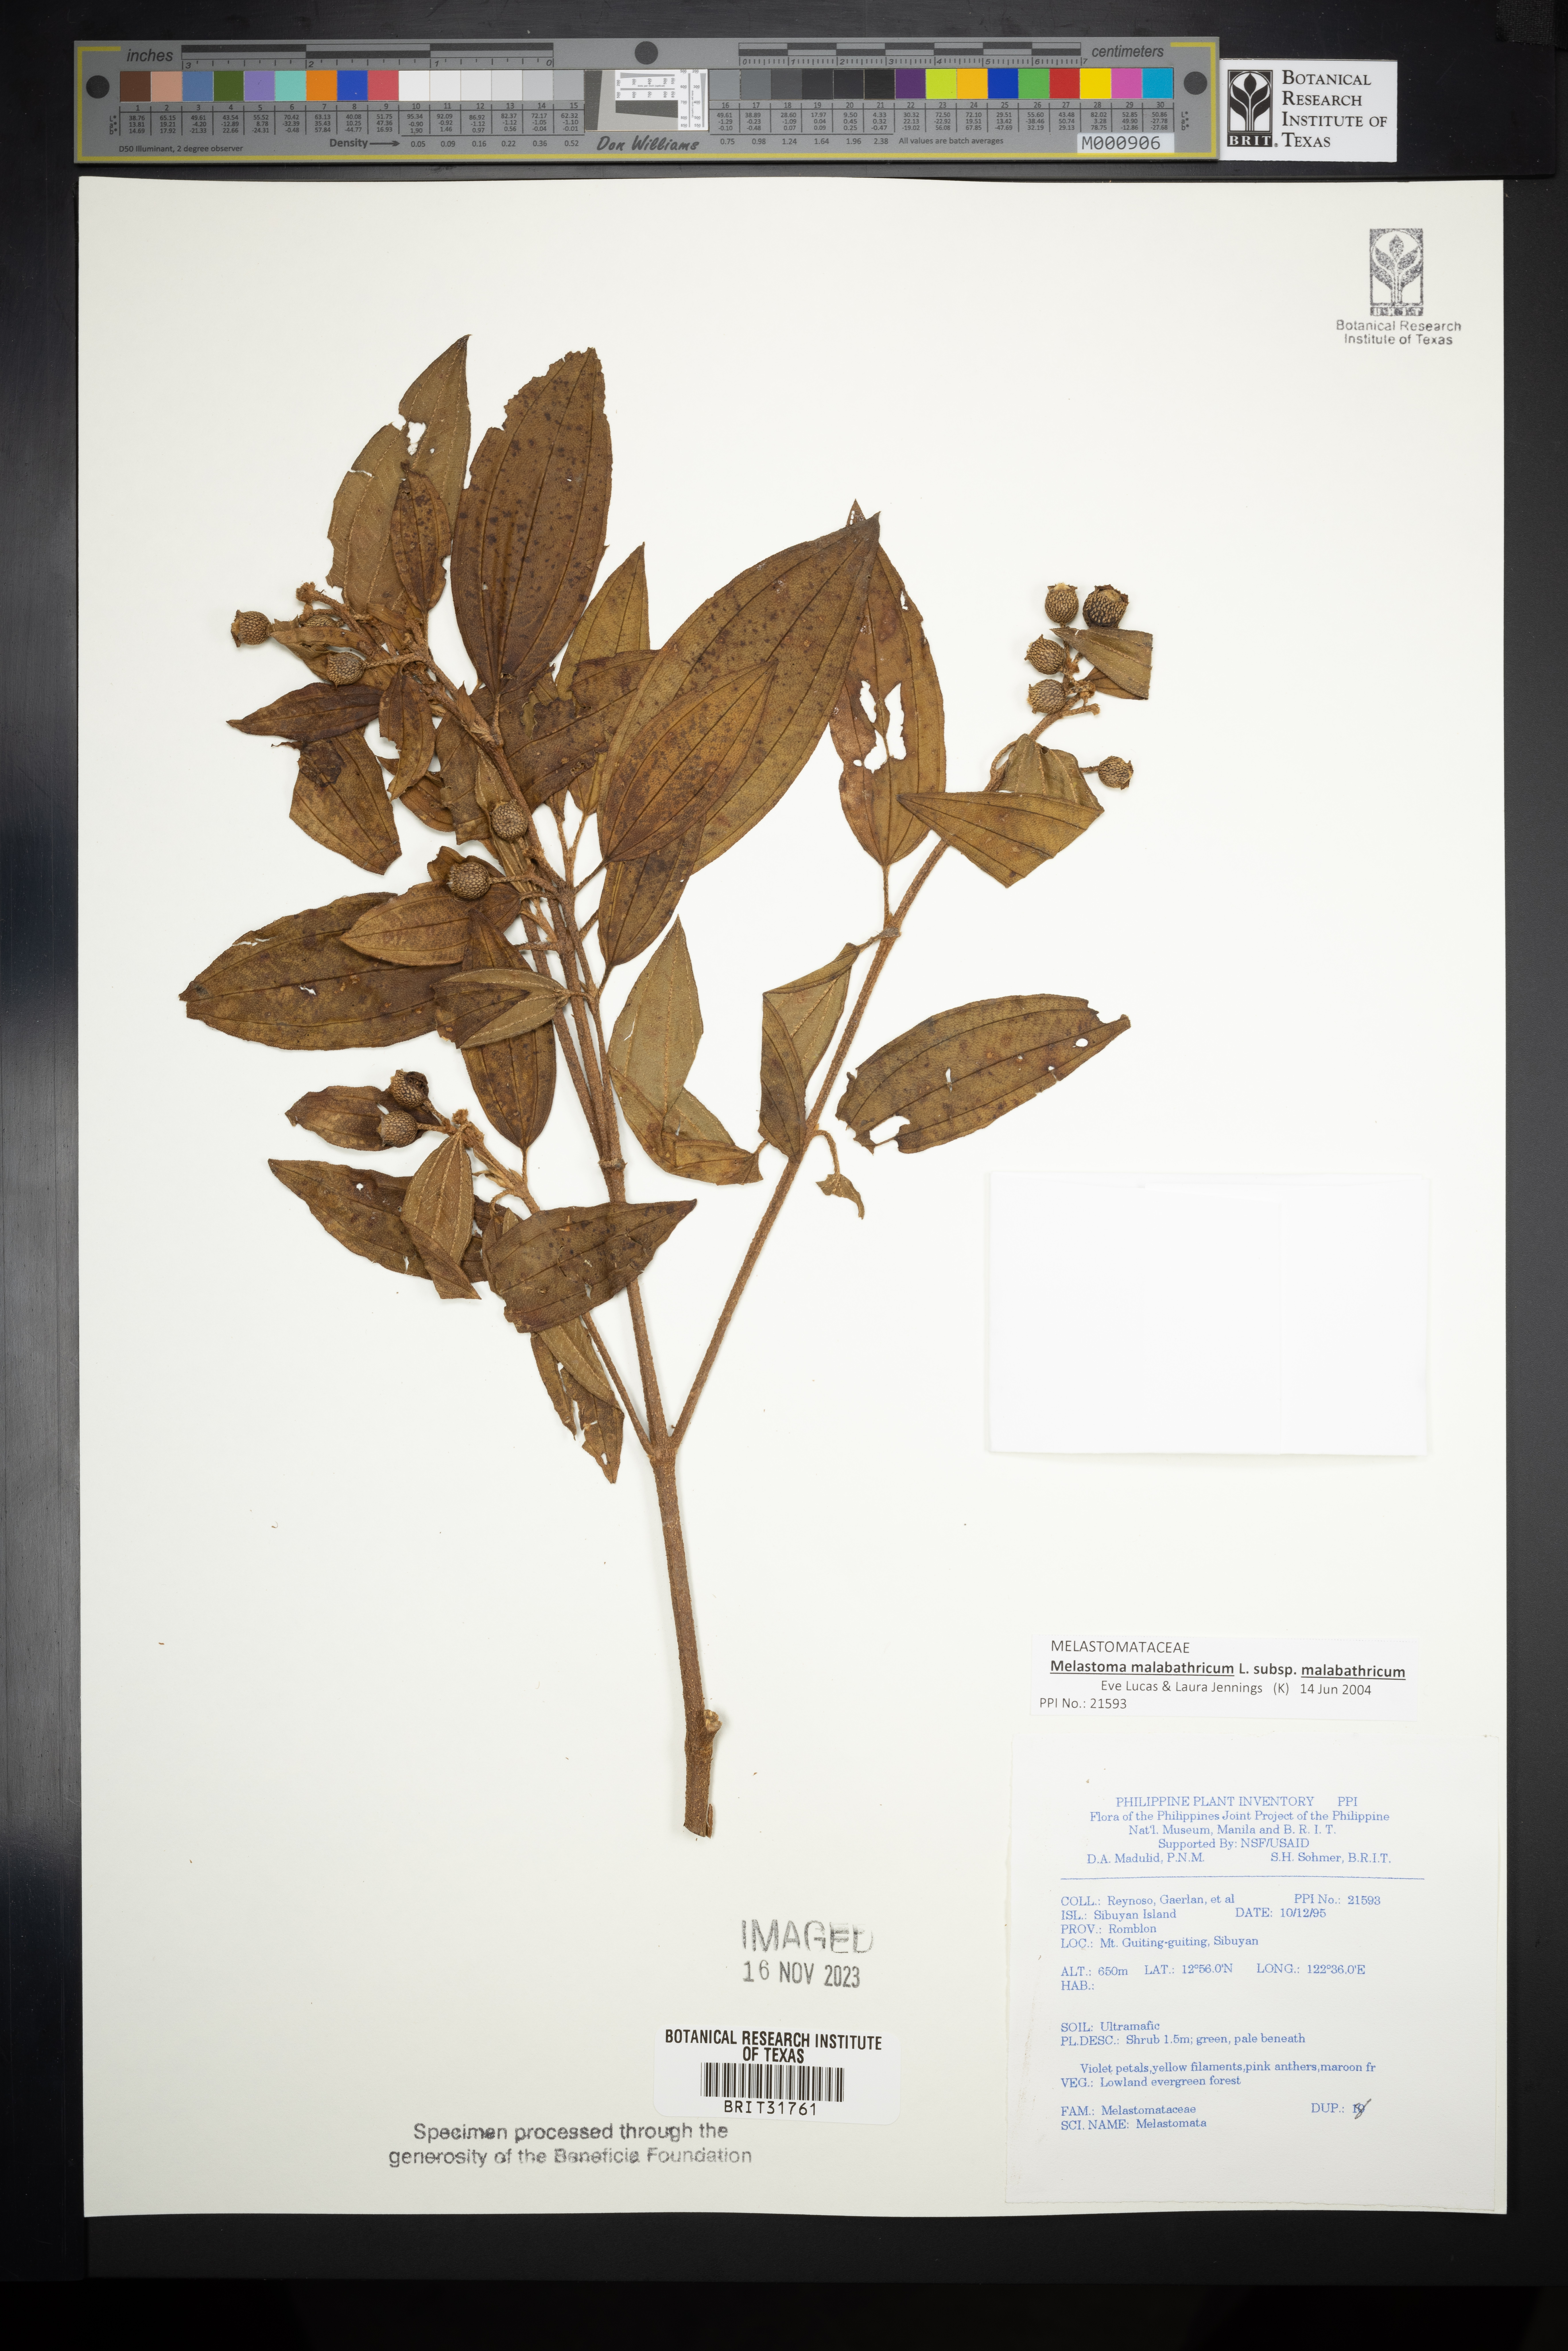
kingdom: Plantae
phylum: Tracheophyta
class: Magnoliopsida
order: Myrtales
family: Melastomataceae
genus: Melastoma
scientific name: Melastoma
